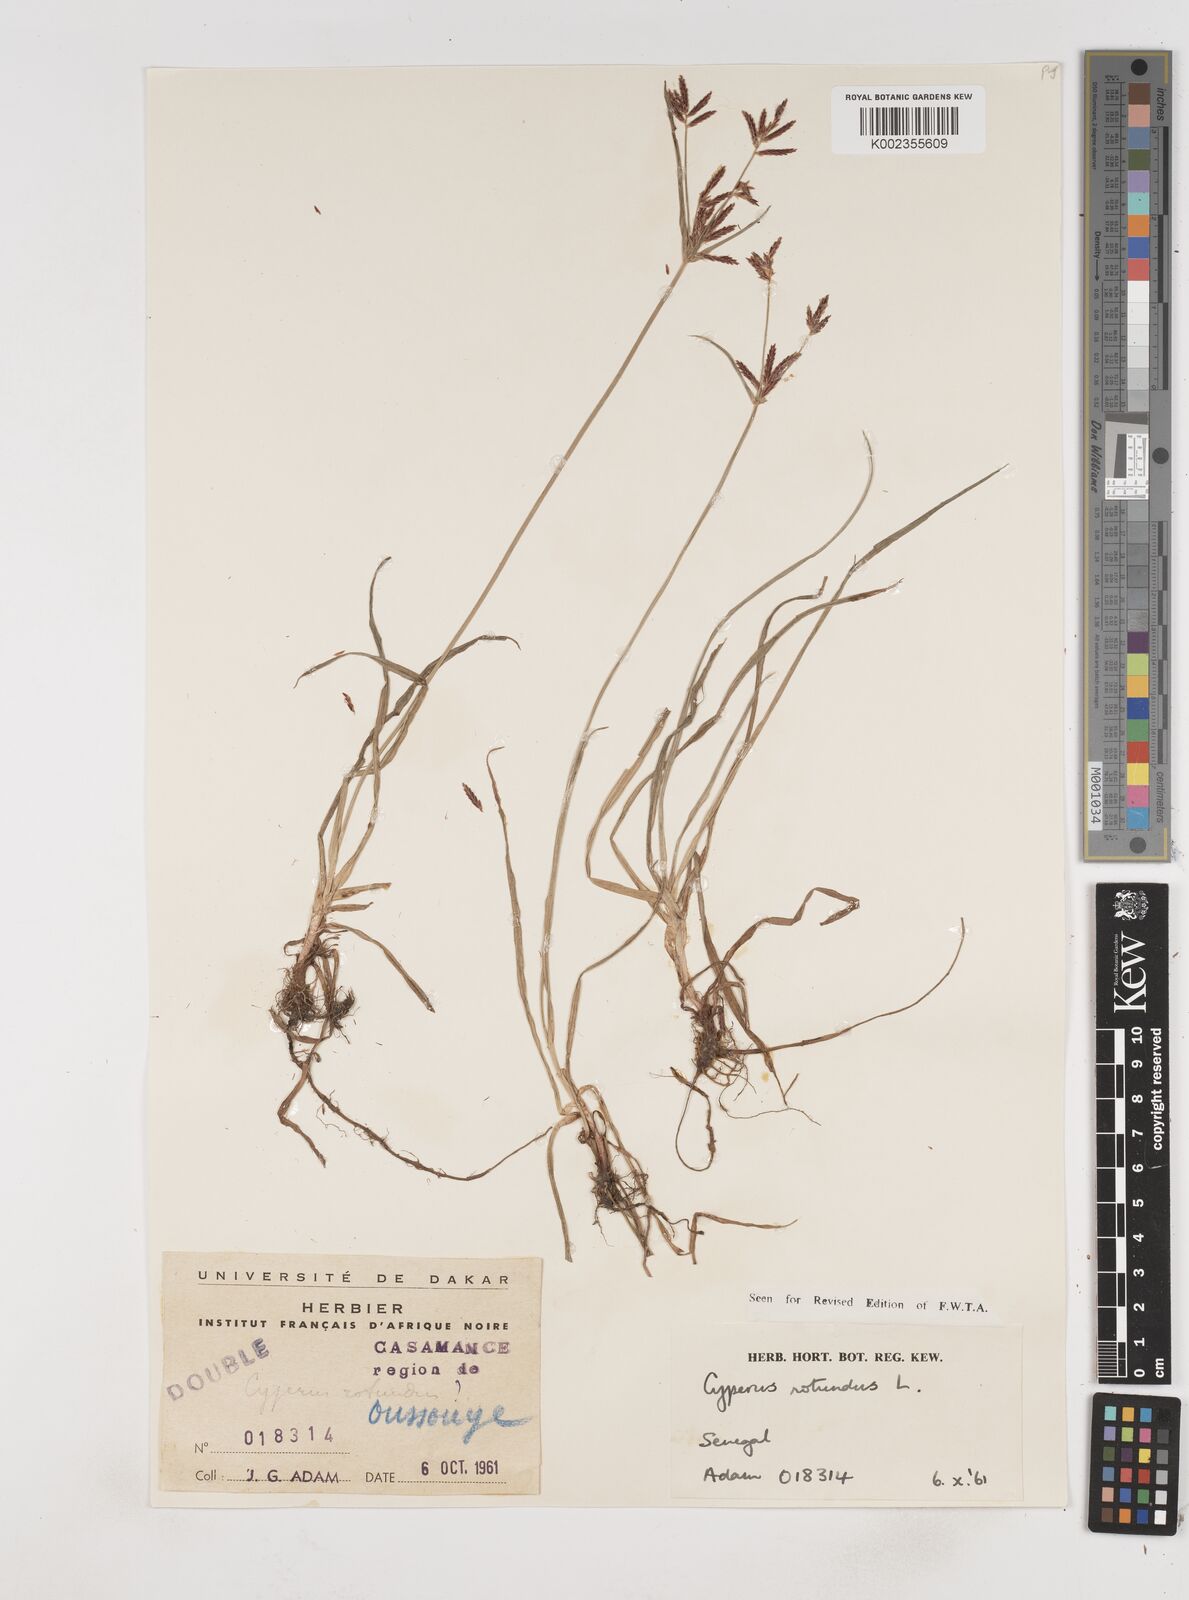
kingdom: Plantae
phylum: Tracheophyta
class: Liliopsida
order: Poales
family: Cyperaceae
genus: Cyperus
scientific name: Cyperus rotundus
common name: Nutgrass
